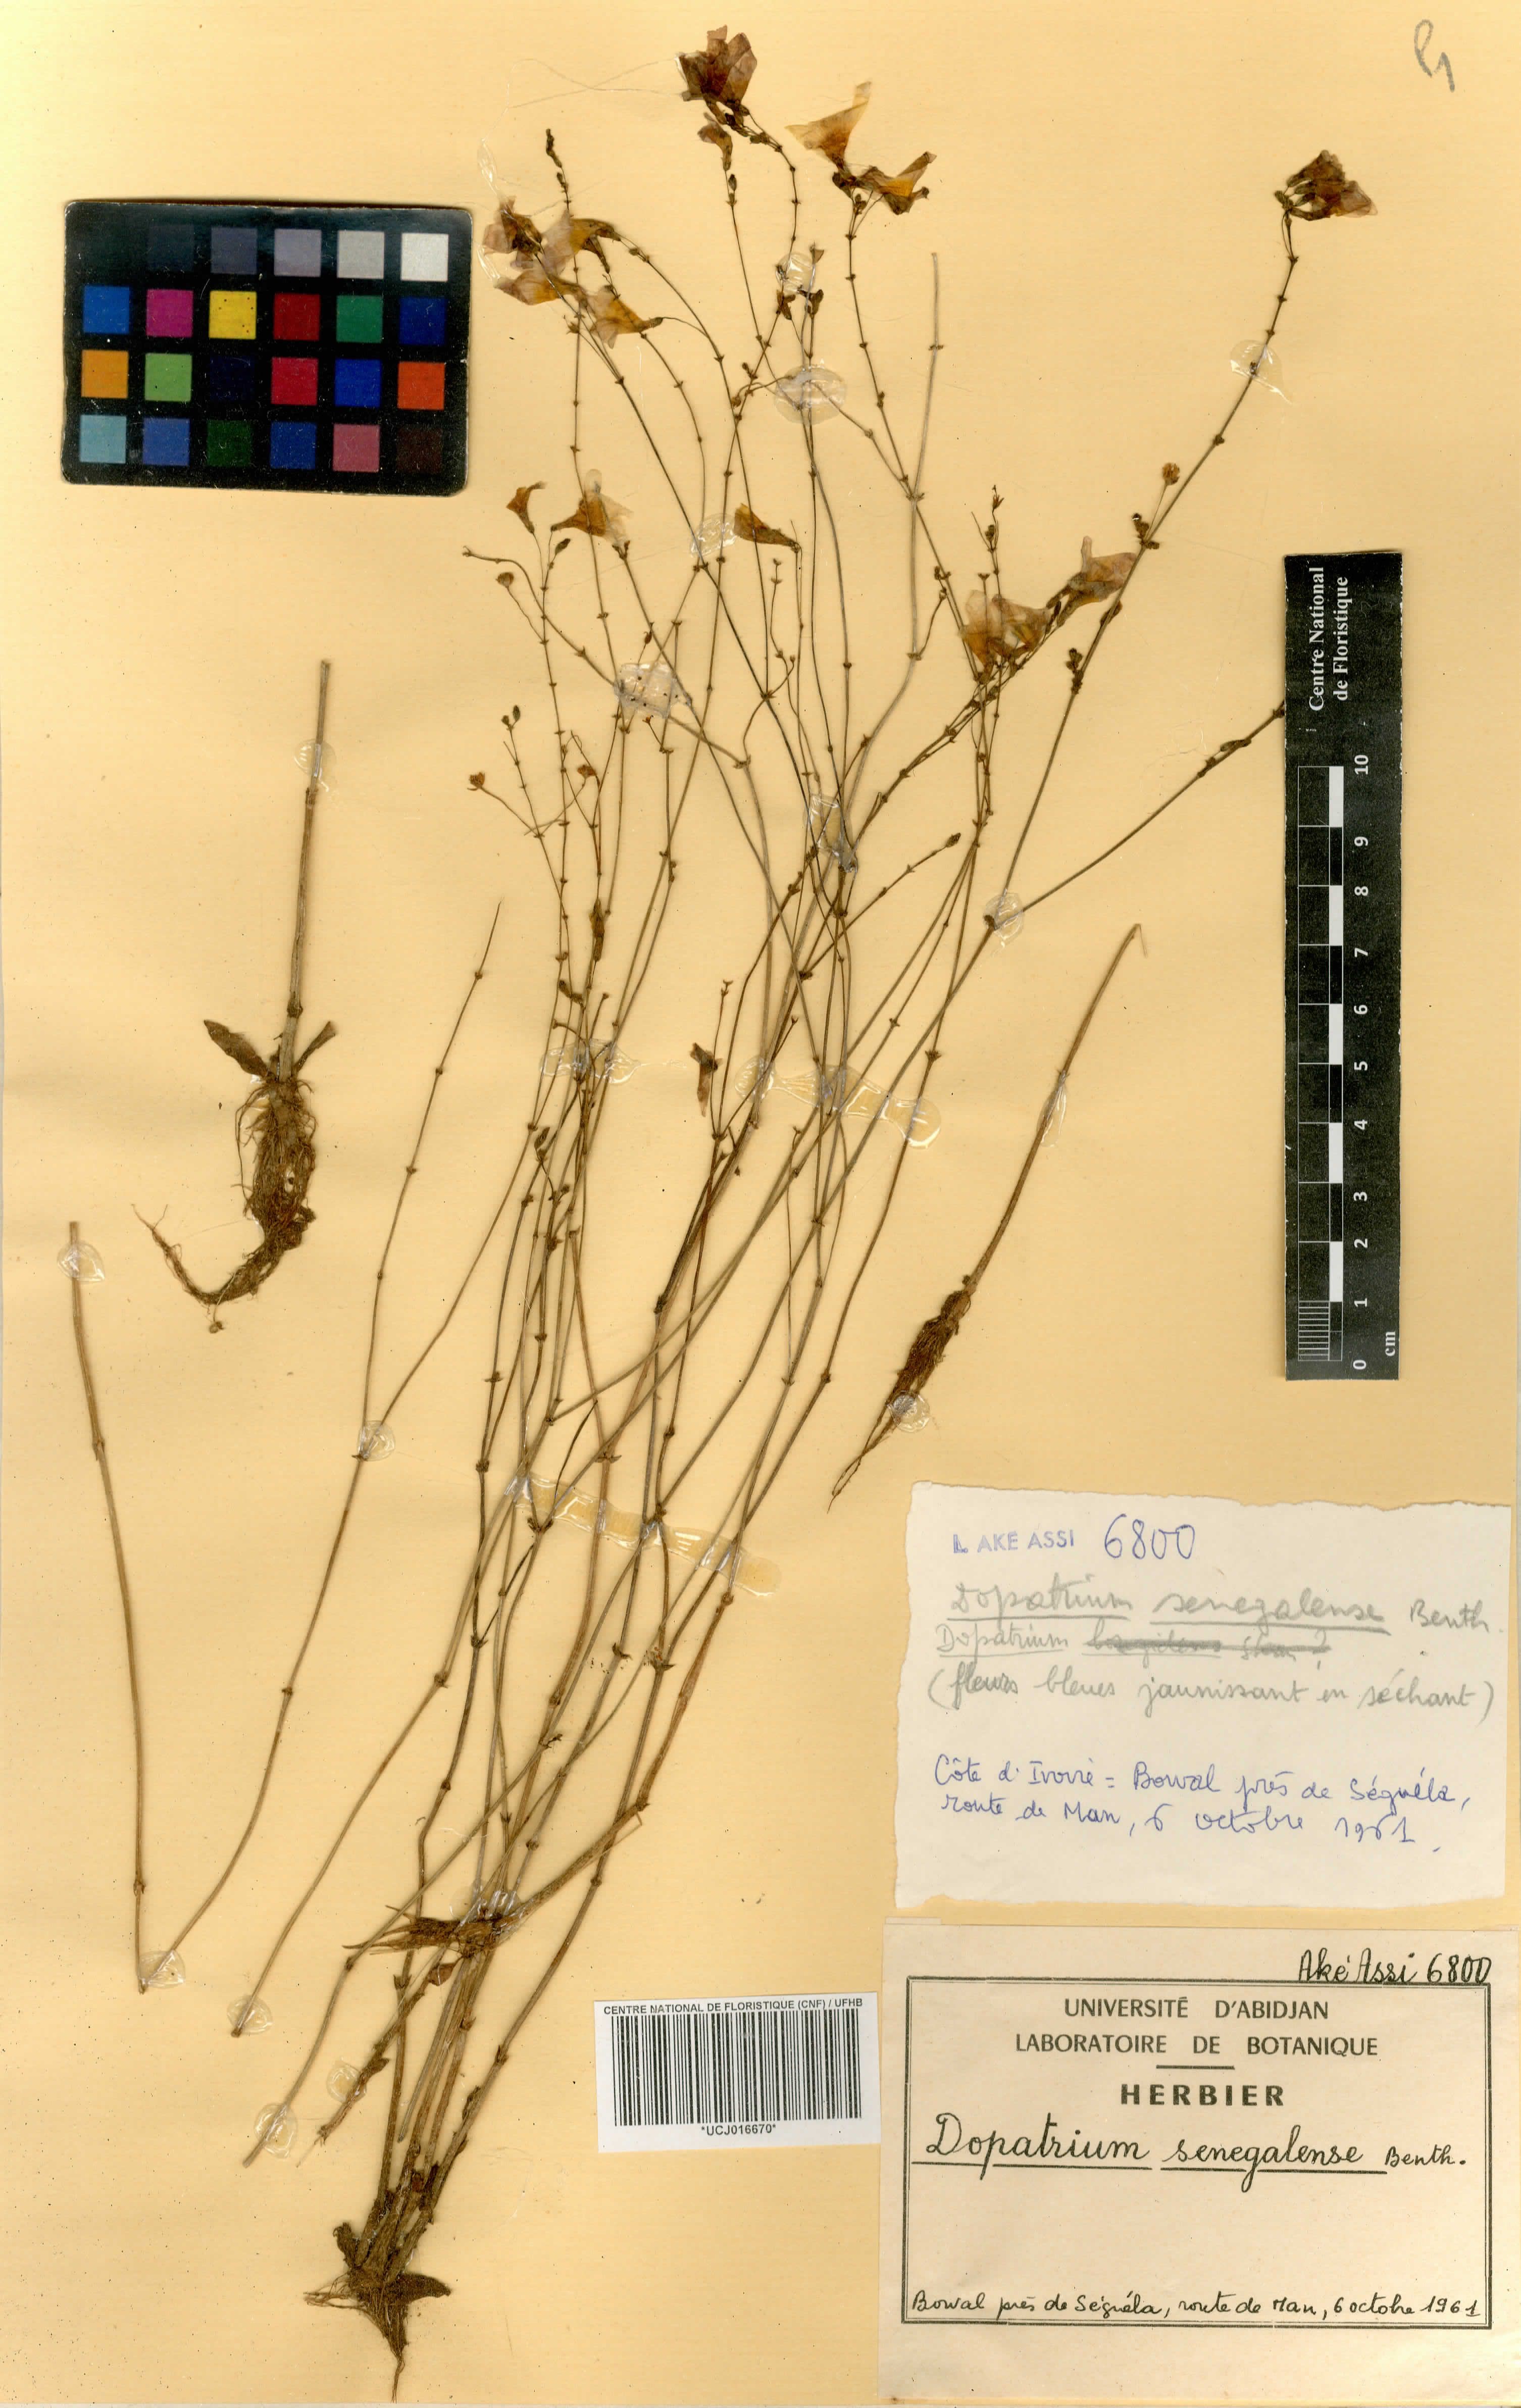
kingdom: Plantae
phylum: Tracheophyta
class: Magnoliopsida
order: Lamiales
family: Plantaginaceae
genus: Dopatrium
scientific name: Dopatrium senegalense
